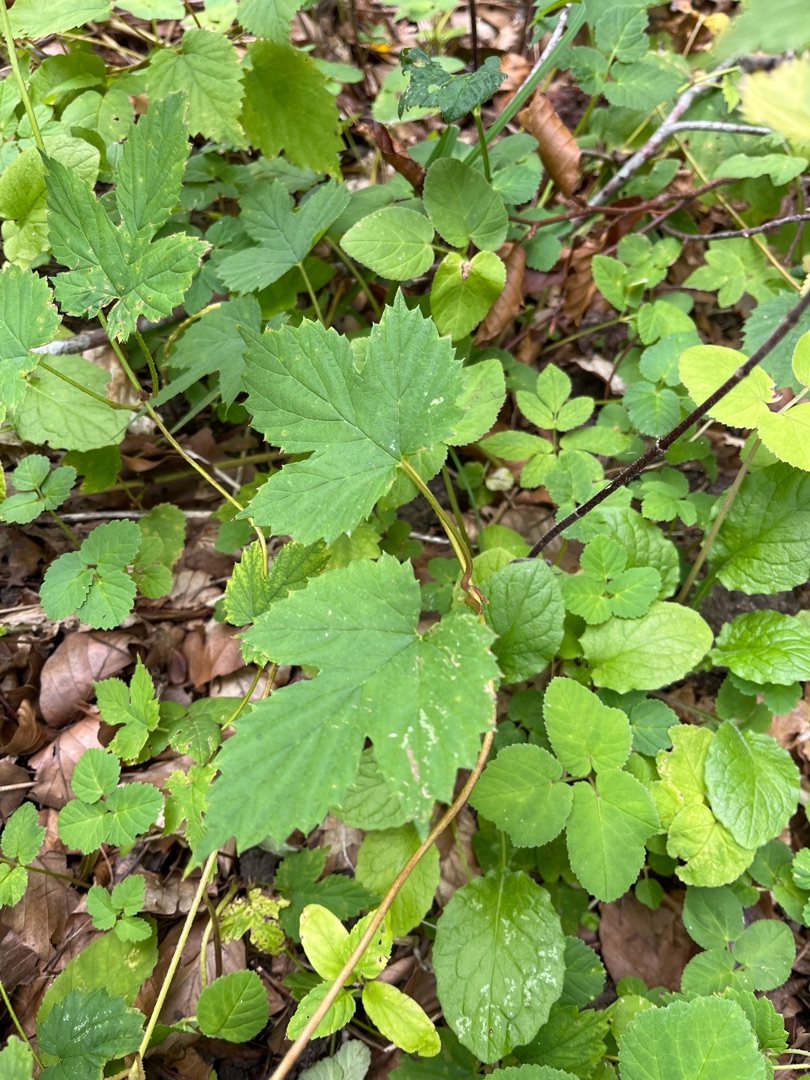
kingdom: Plantae
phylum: Tracheophyta
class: Magnoliopsida
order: Rosales
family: Cannabaceae
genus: Humulus
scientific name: Humulus lupulus
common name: Humle
